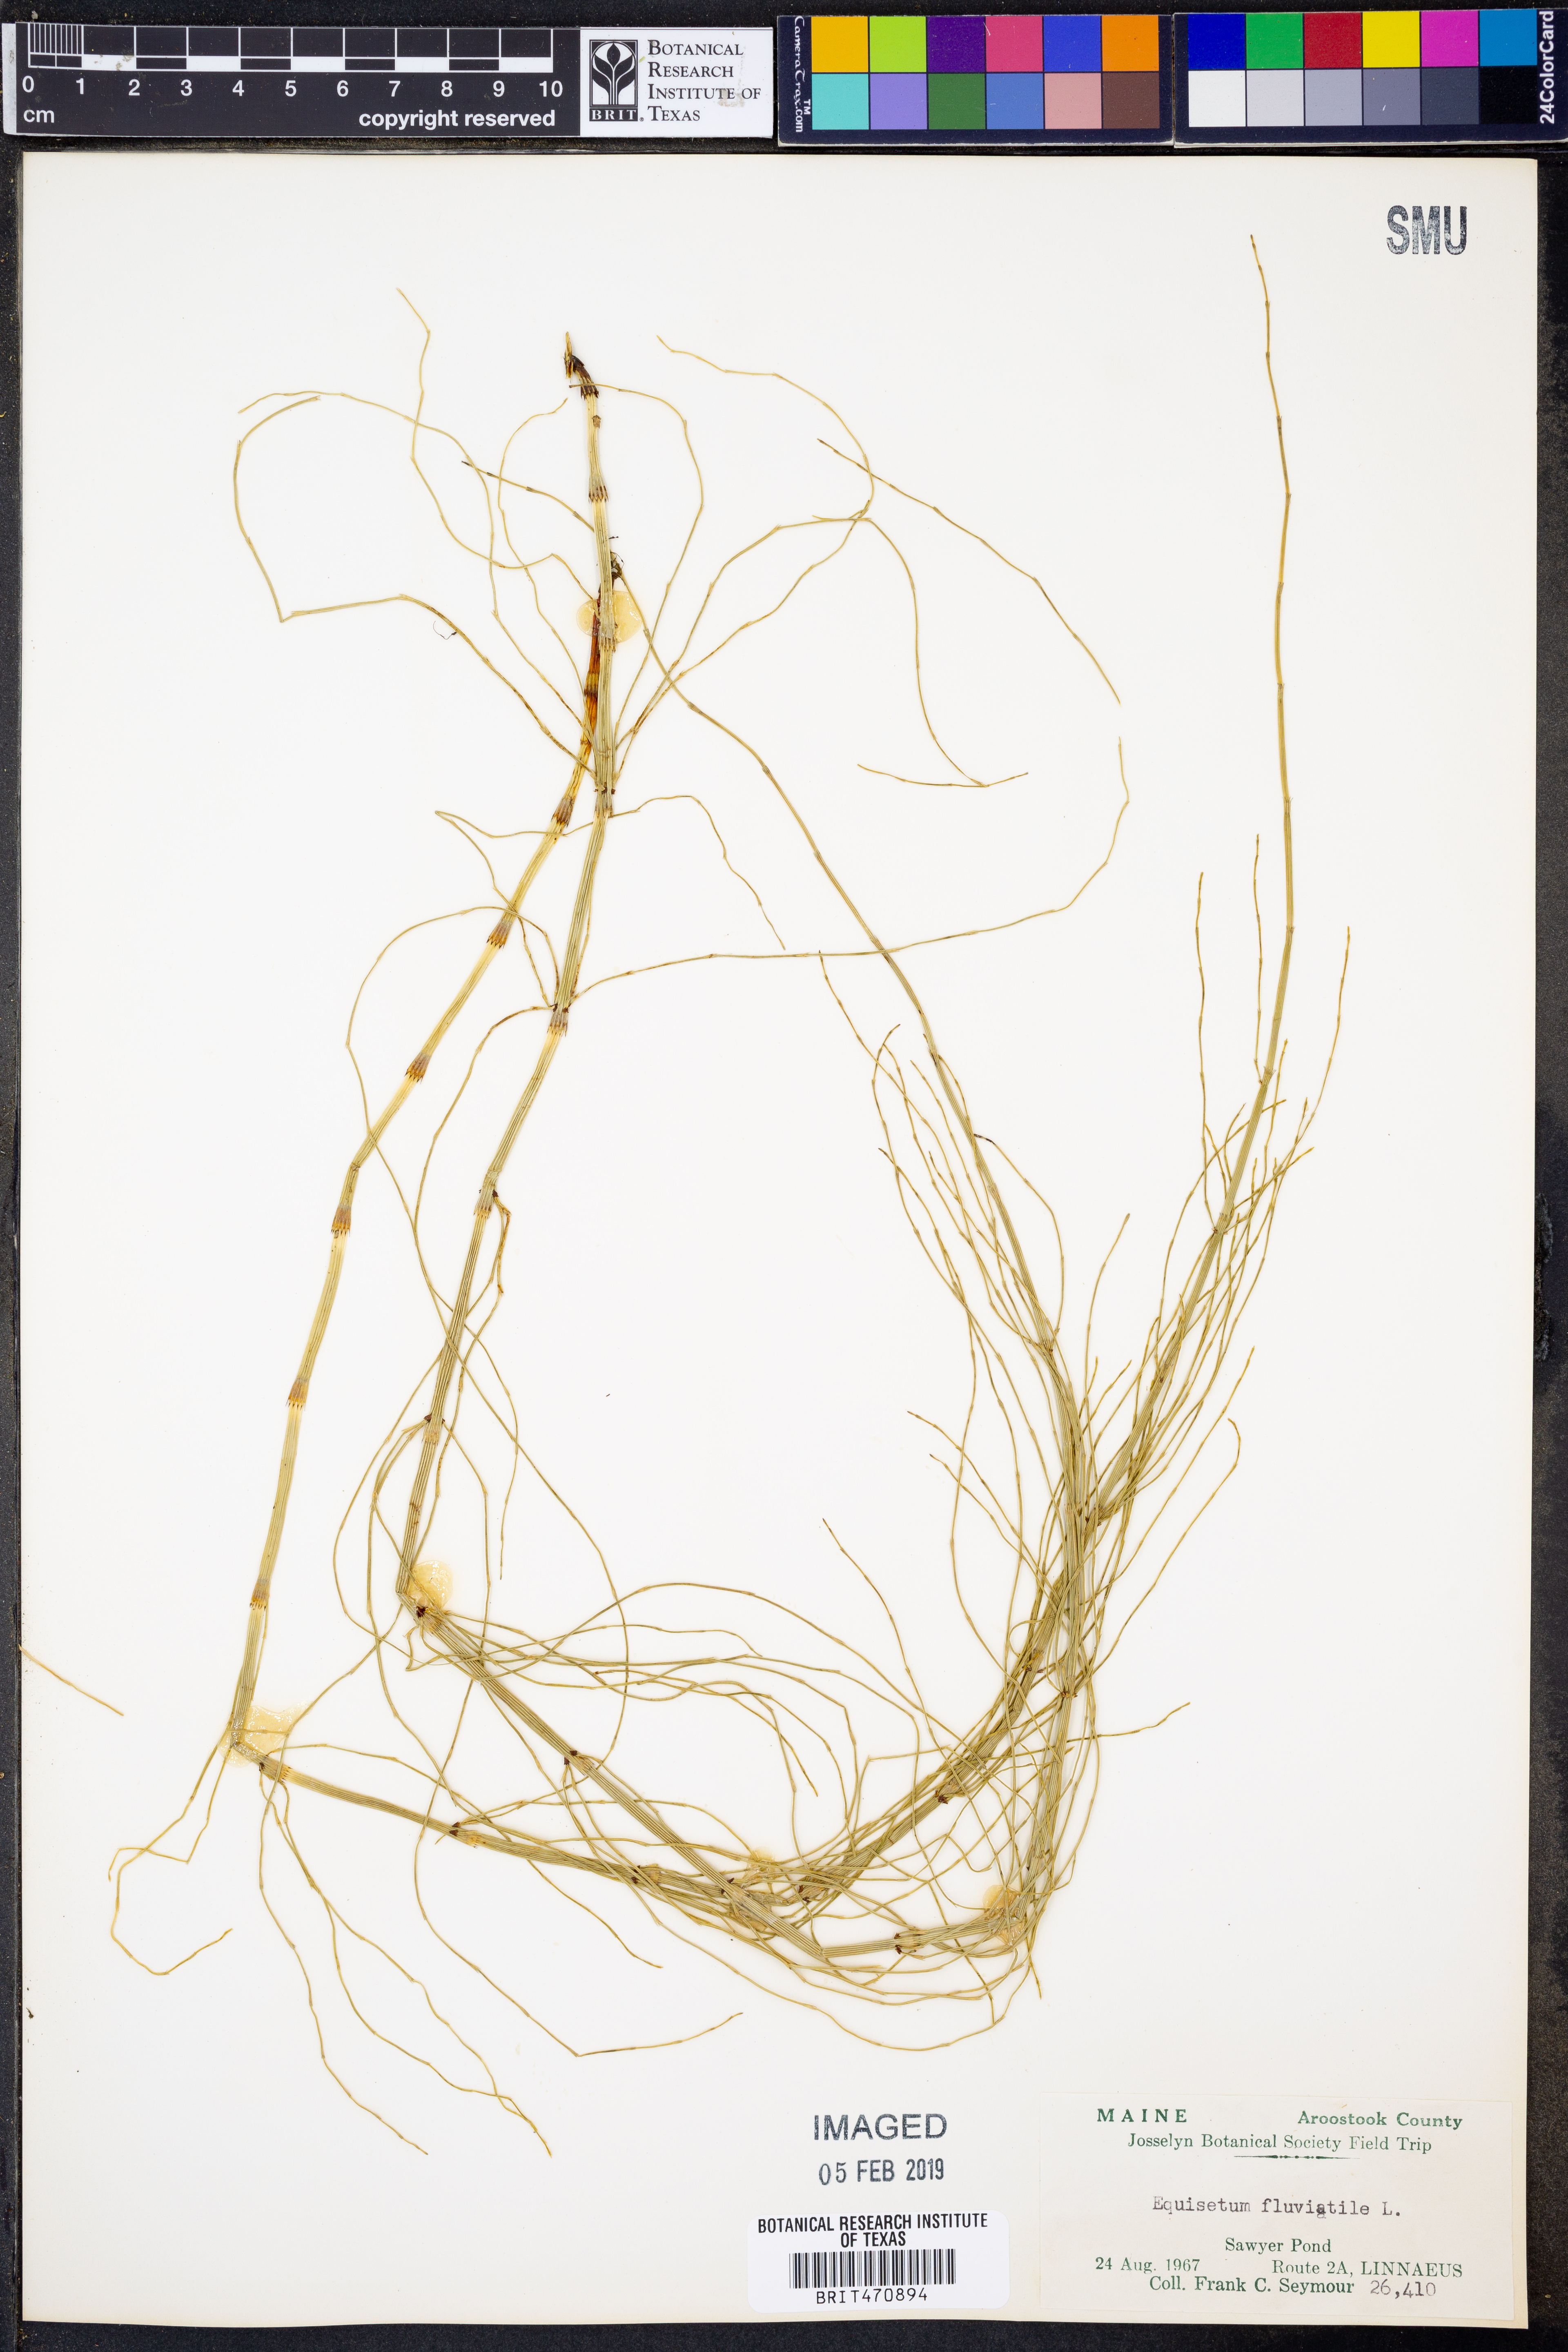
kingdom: Plantae
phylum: Tracheophyta
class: Polypodiopsida
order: Equisetales
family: Equisetaceae
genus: Equisetum
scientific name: Equisetum fluviatile
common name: Water horsetail
